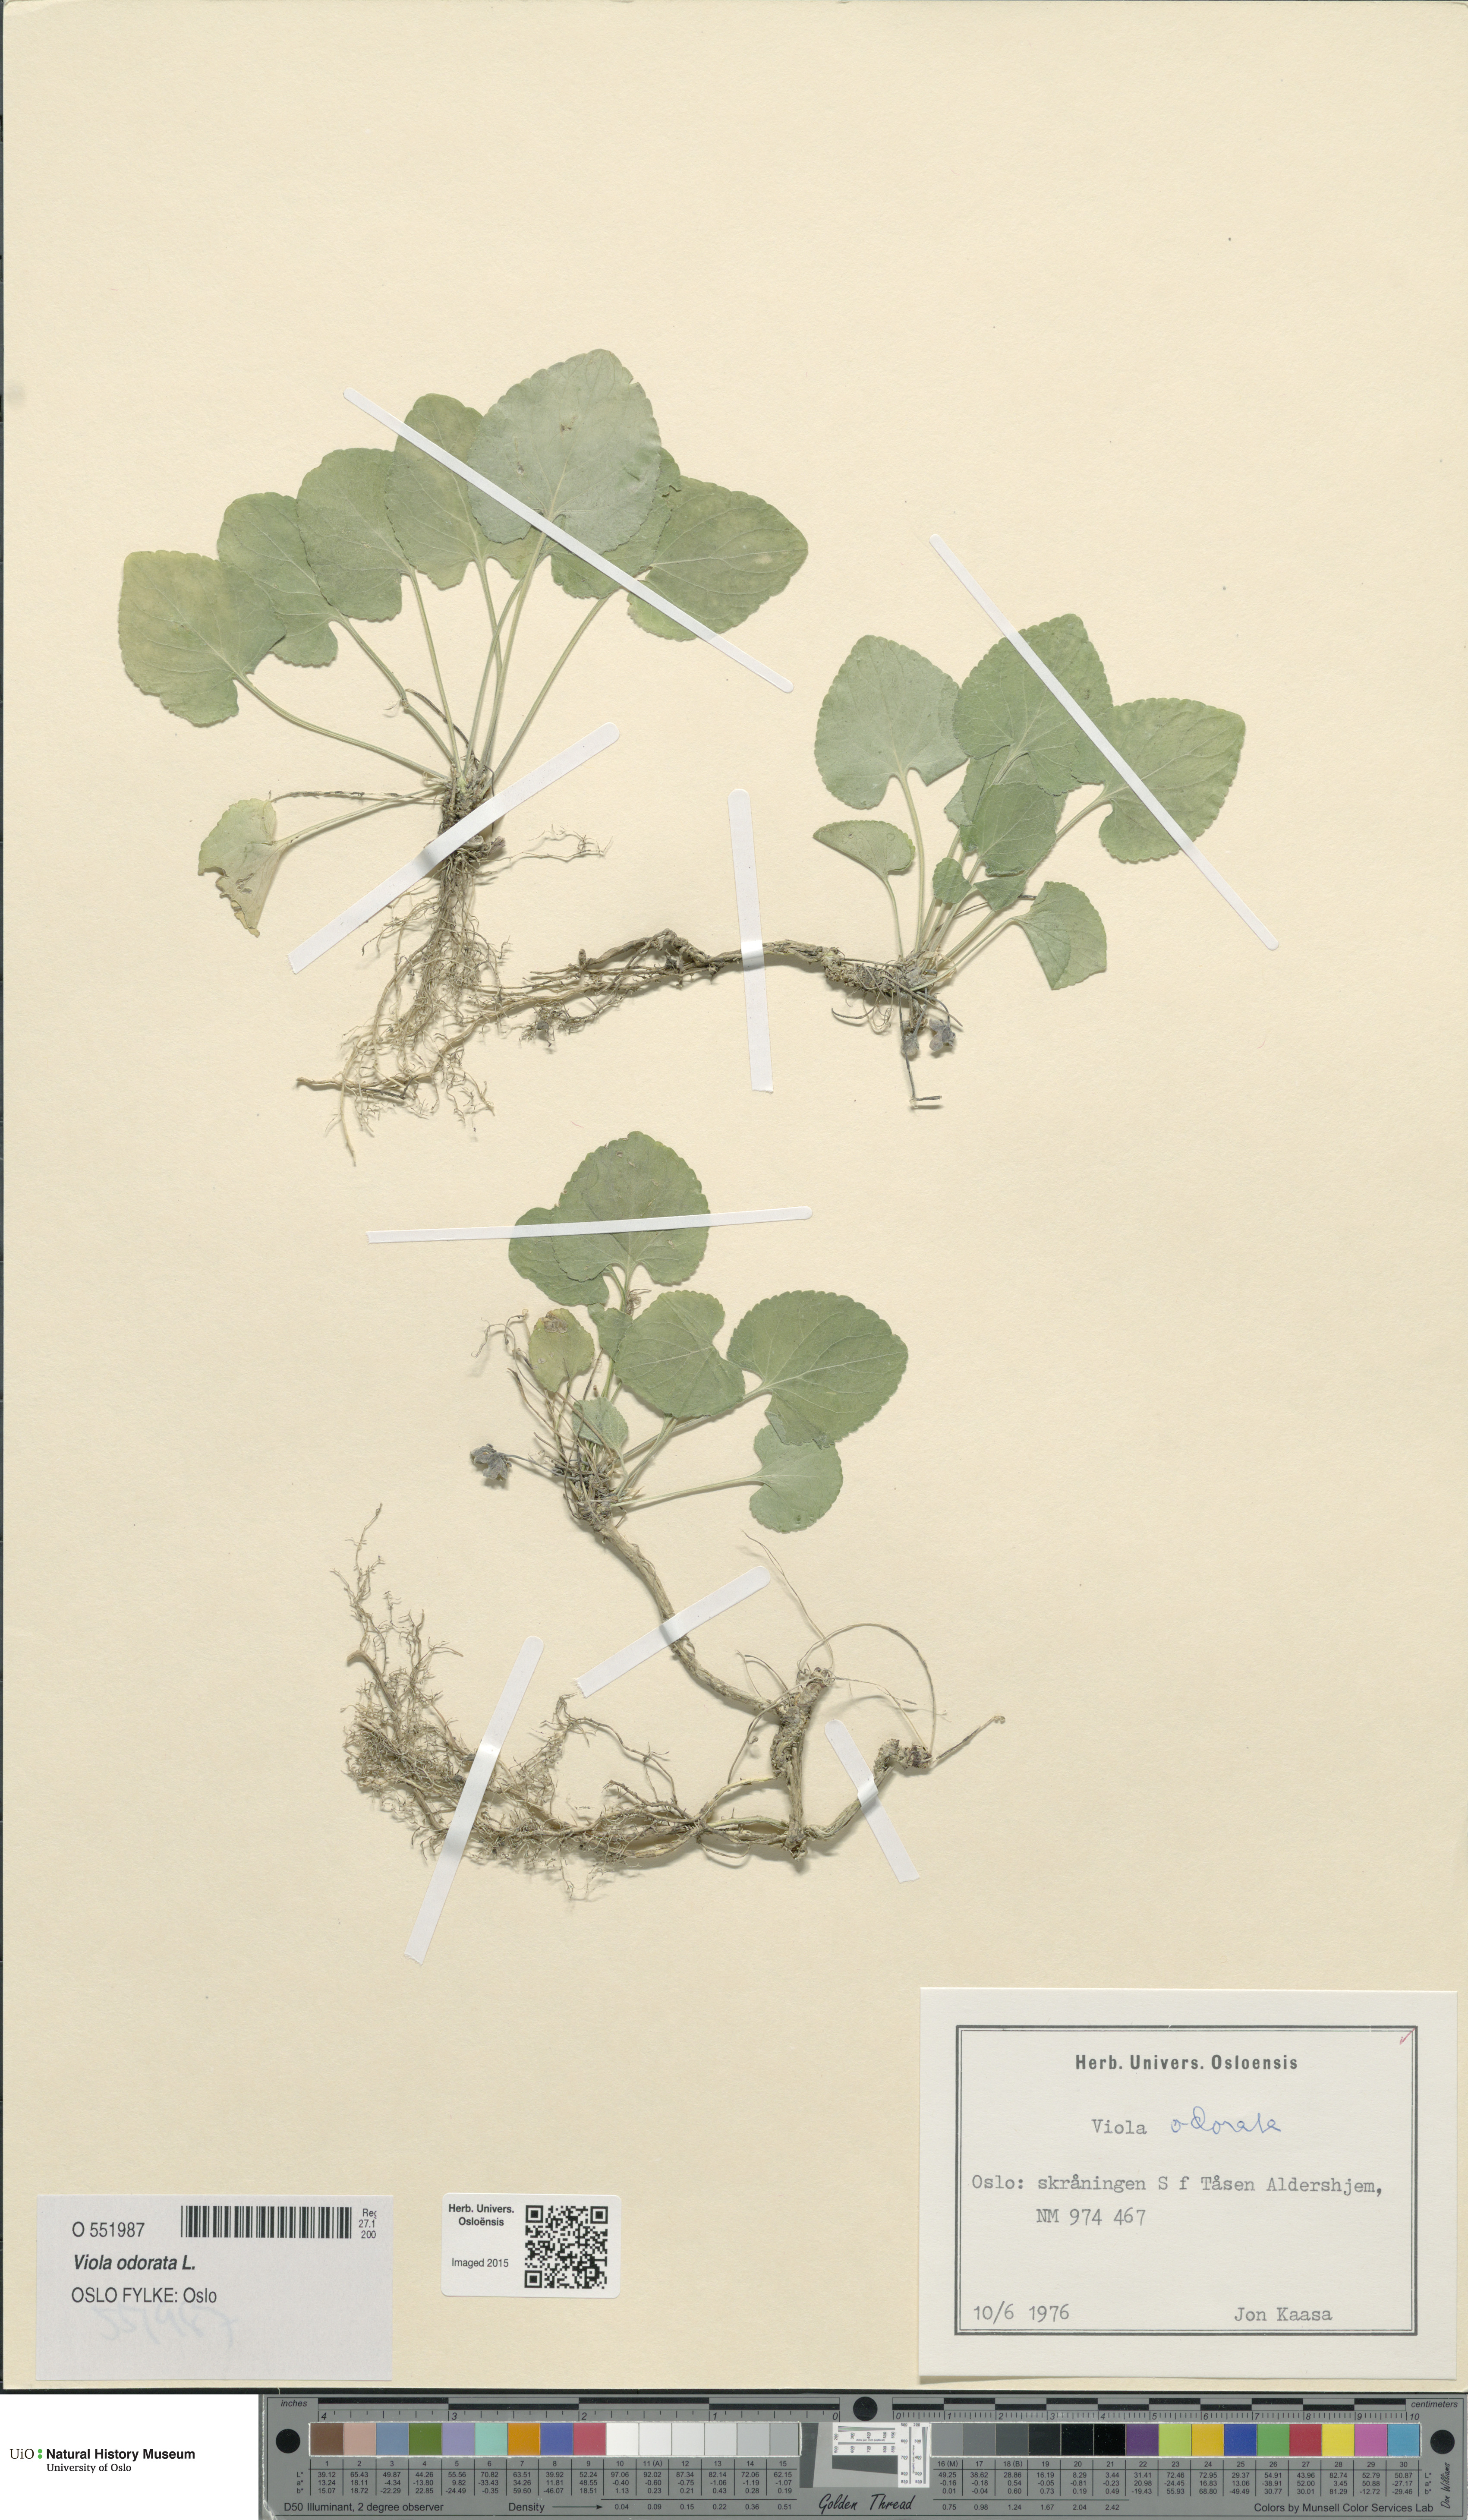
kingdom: Plantae
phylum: Tracheophyta
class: Magnoliopsida
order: Malpighiales
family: Violaceae
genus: Viola
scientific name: Viola odorata
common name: Sweet violet
